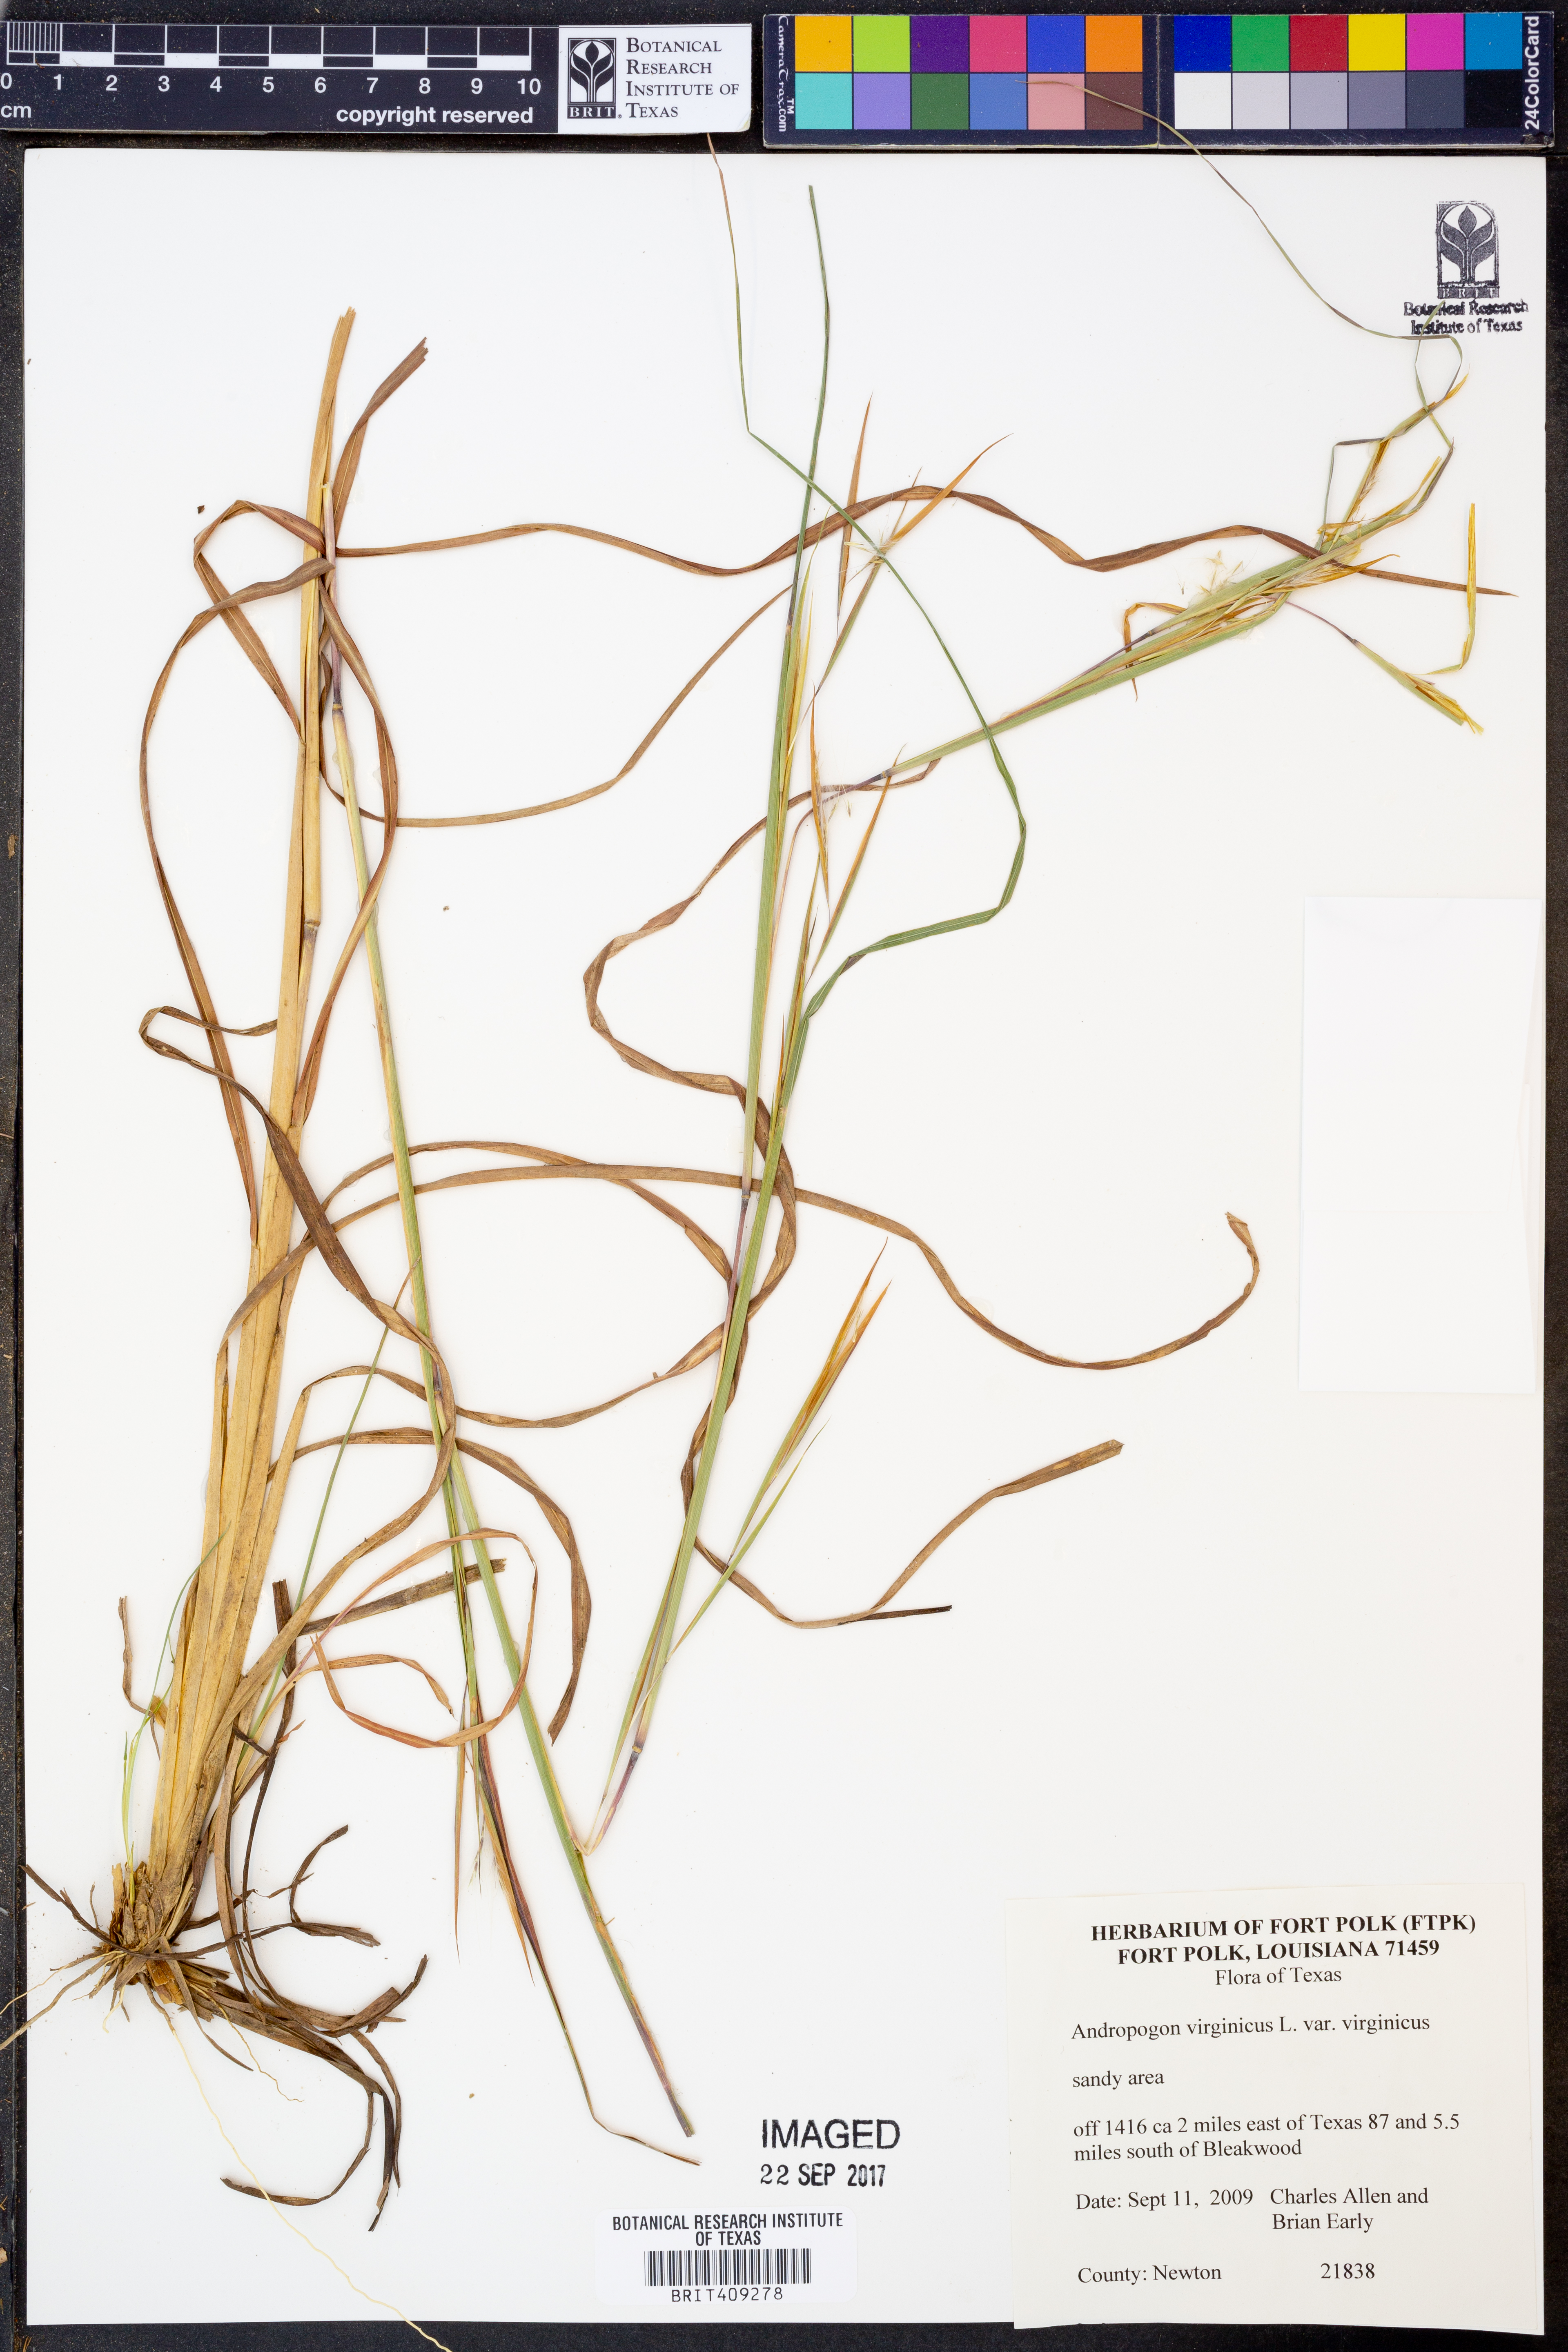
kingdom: Plantae
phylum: Tracheophyta
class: Liliopsida
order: Poales
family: Poaceae
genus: Andropogon
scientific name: Andropogon virginicus
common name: Broomsedge bluestem
